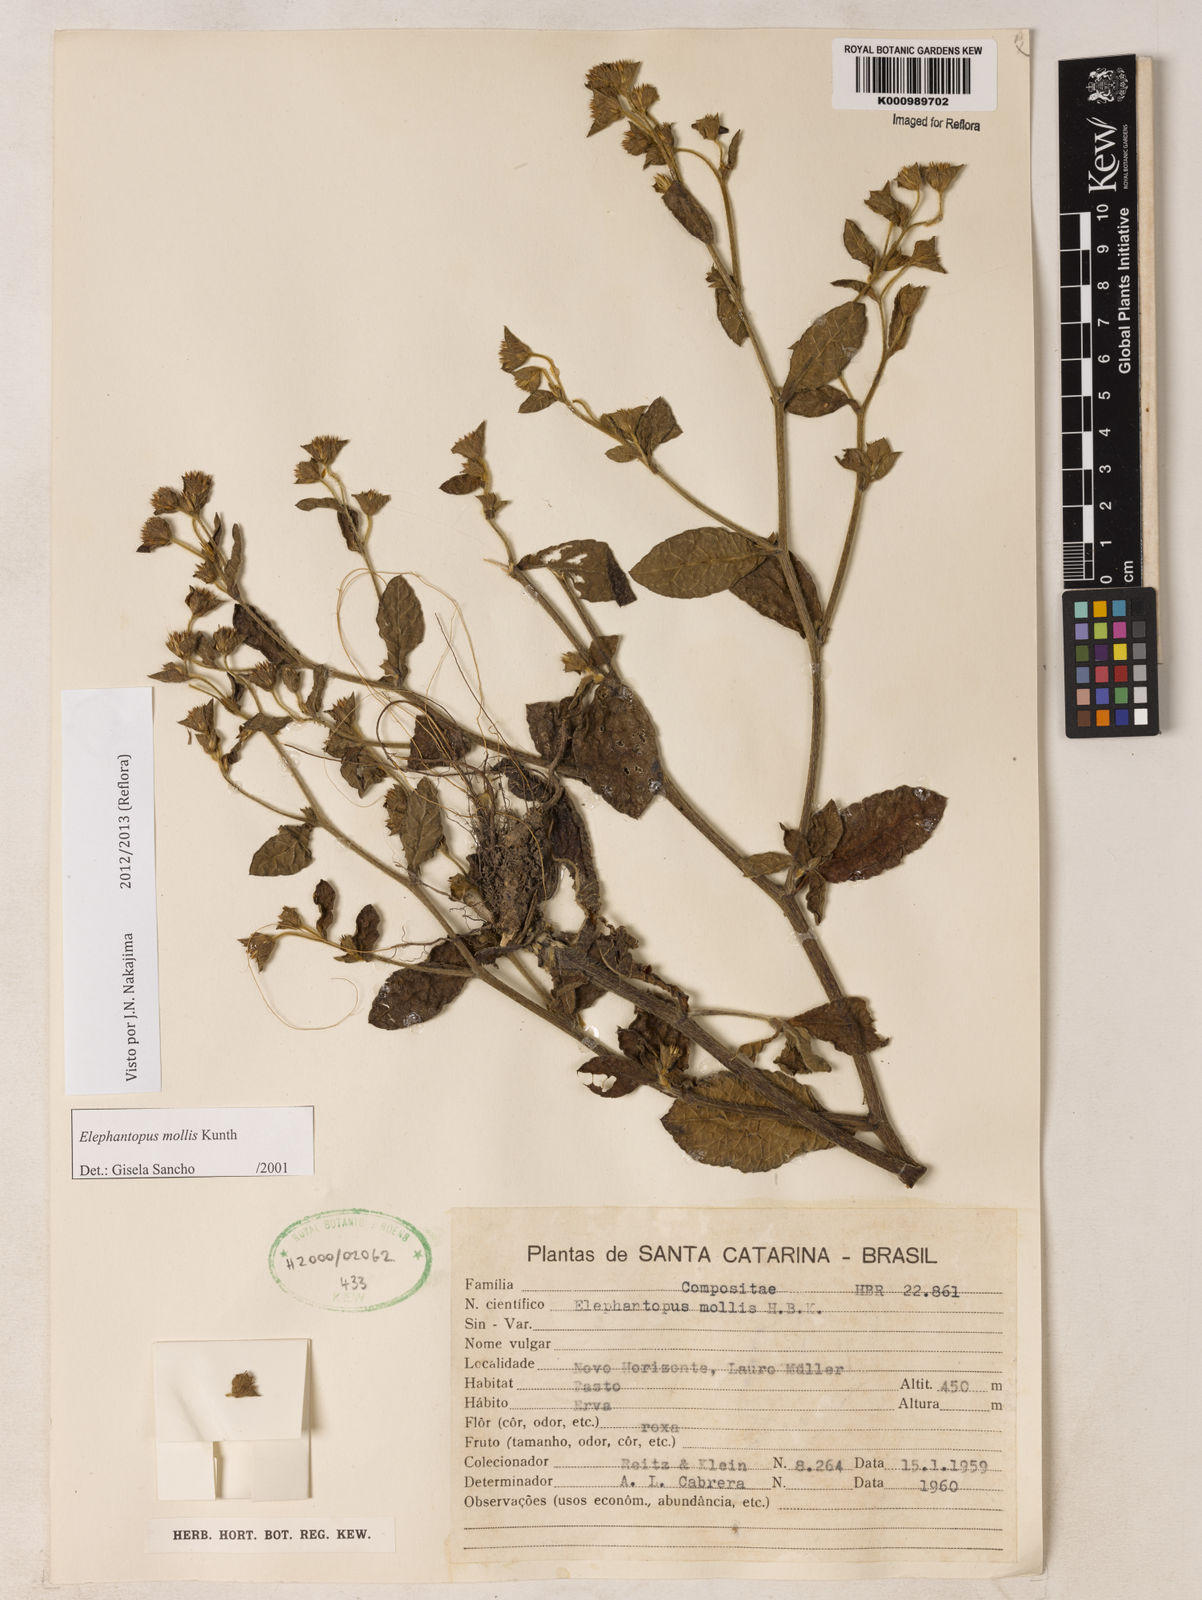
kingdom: Plantae
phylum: Tracheophyta
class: Magnoliopsida
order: Asterales
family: Asteraceae
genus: Elephantopus
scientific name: Elephantopus mollis
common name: Soft elephantsfoot
